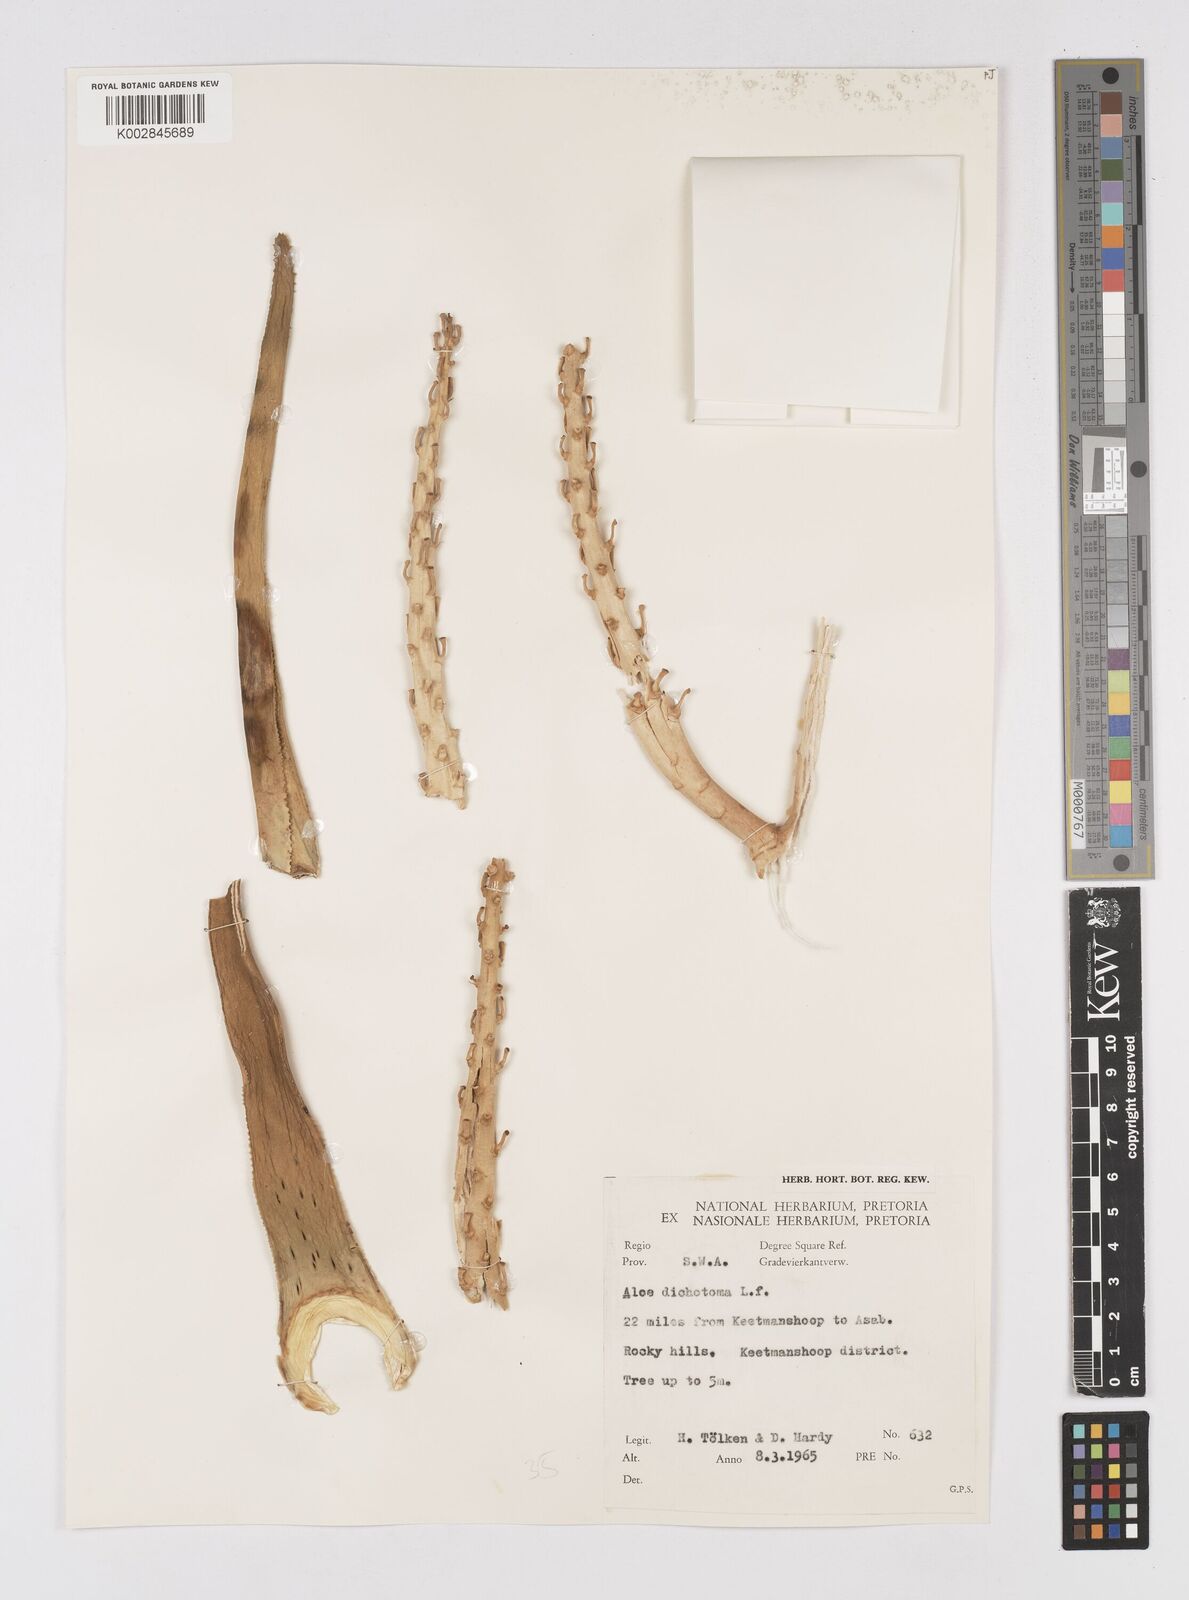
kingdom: Plantae
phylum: Tracheophyta
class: Liliopsida
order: Asparagales
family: Asphodelaceae
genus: Aloidendron
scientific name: Aloidendron dichotomum
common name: Quiver tree
